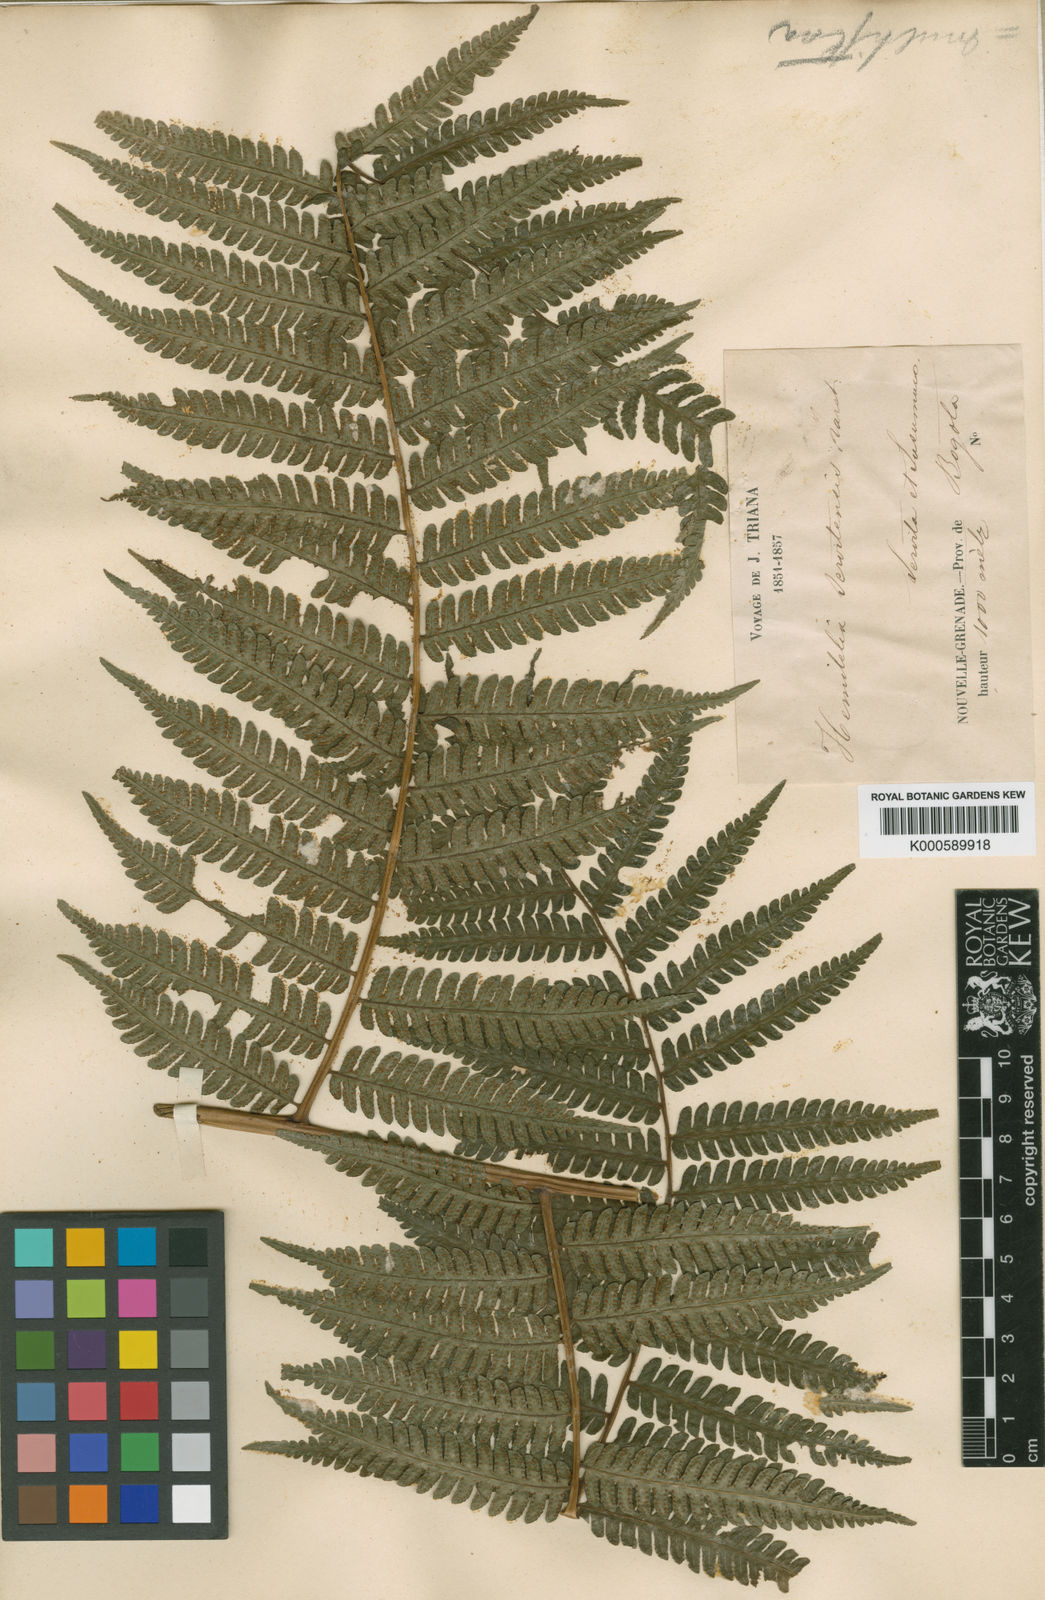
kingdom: Plantae
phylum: Tracheophyta
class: Polypodiopsida
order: Cyatheales
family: Cyatheaceae
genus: Cyathea
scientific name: Cyathea andina
